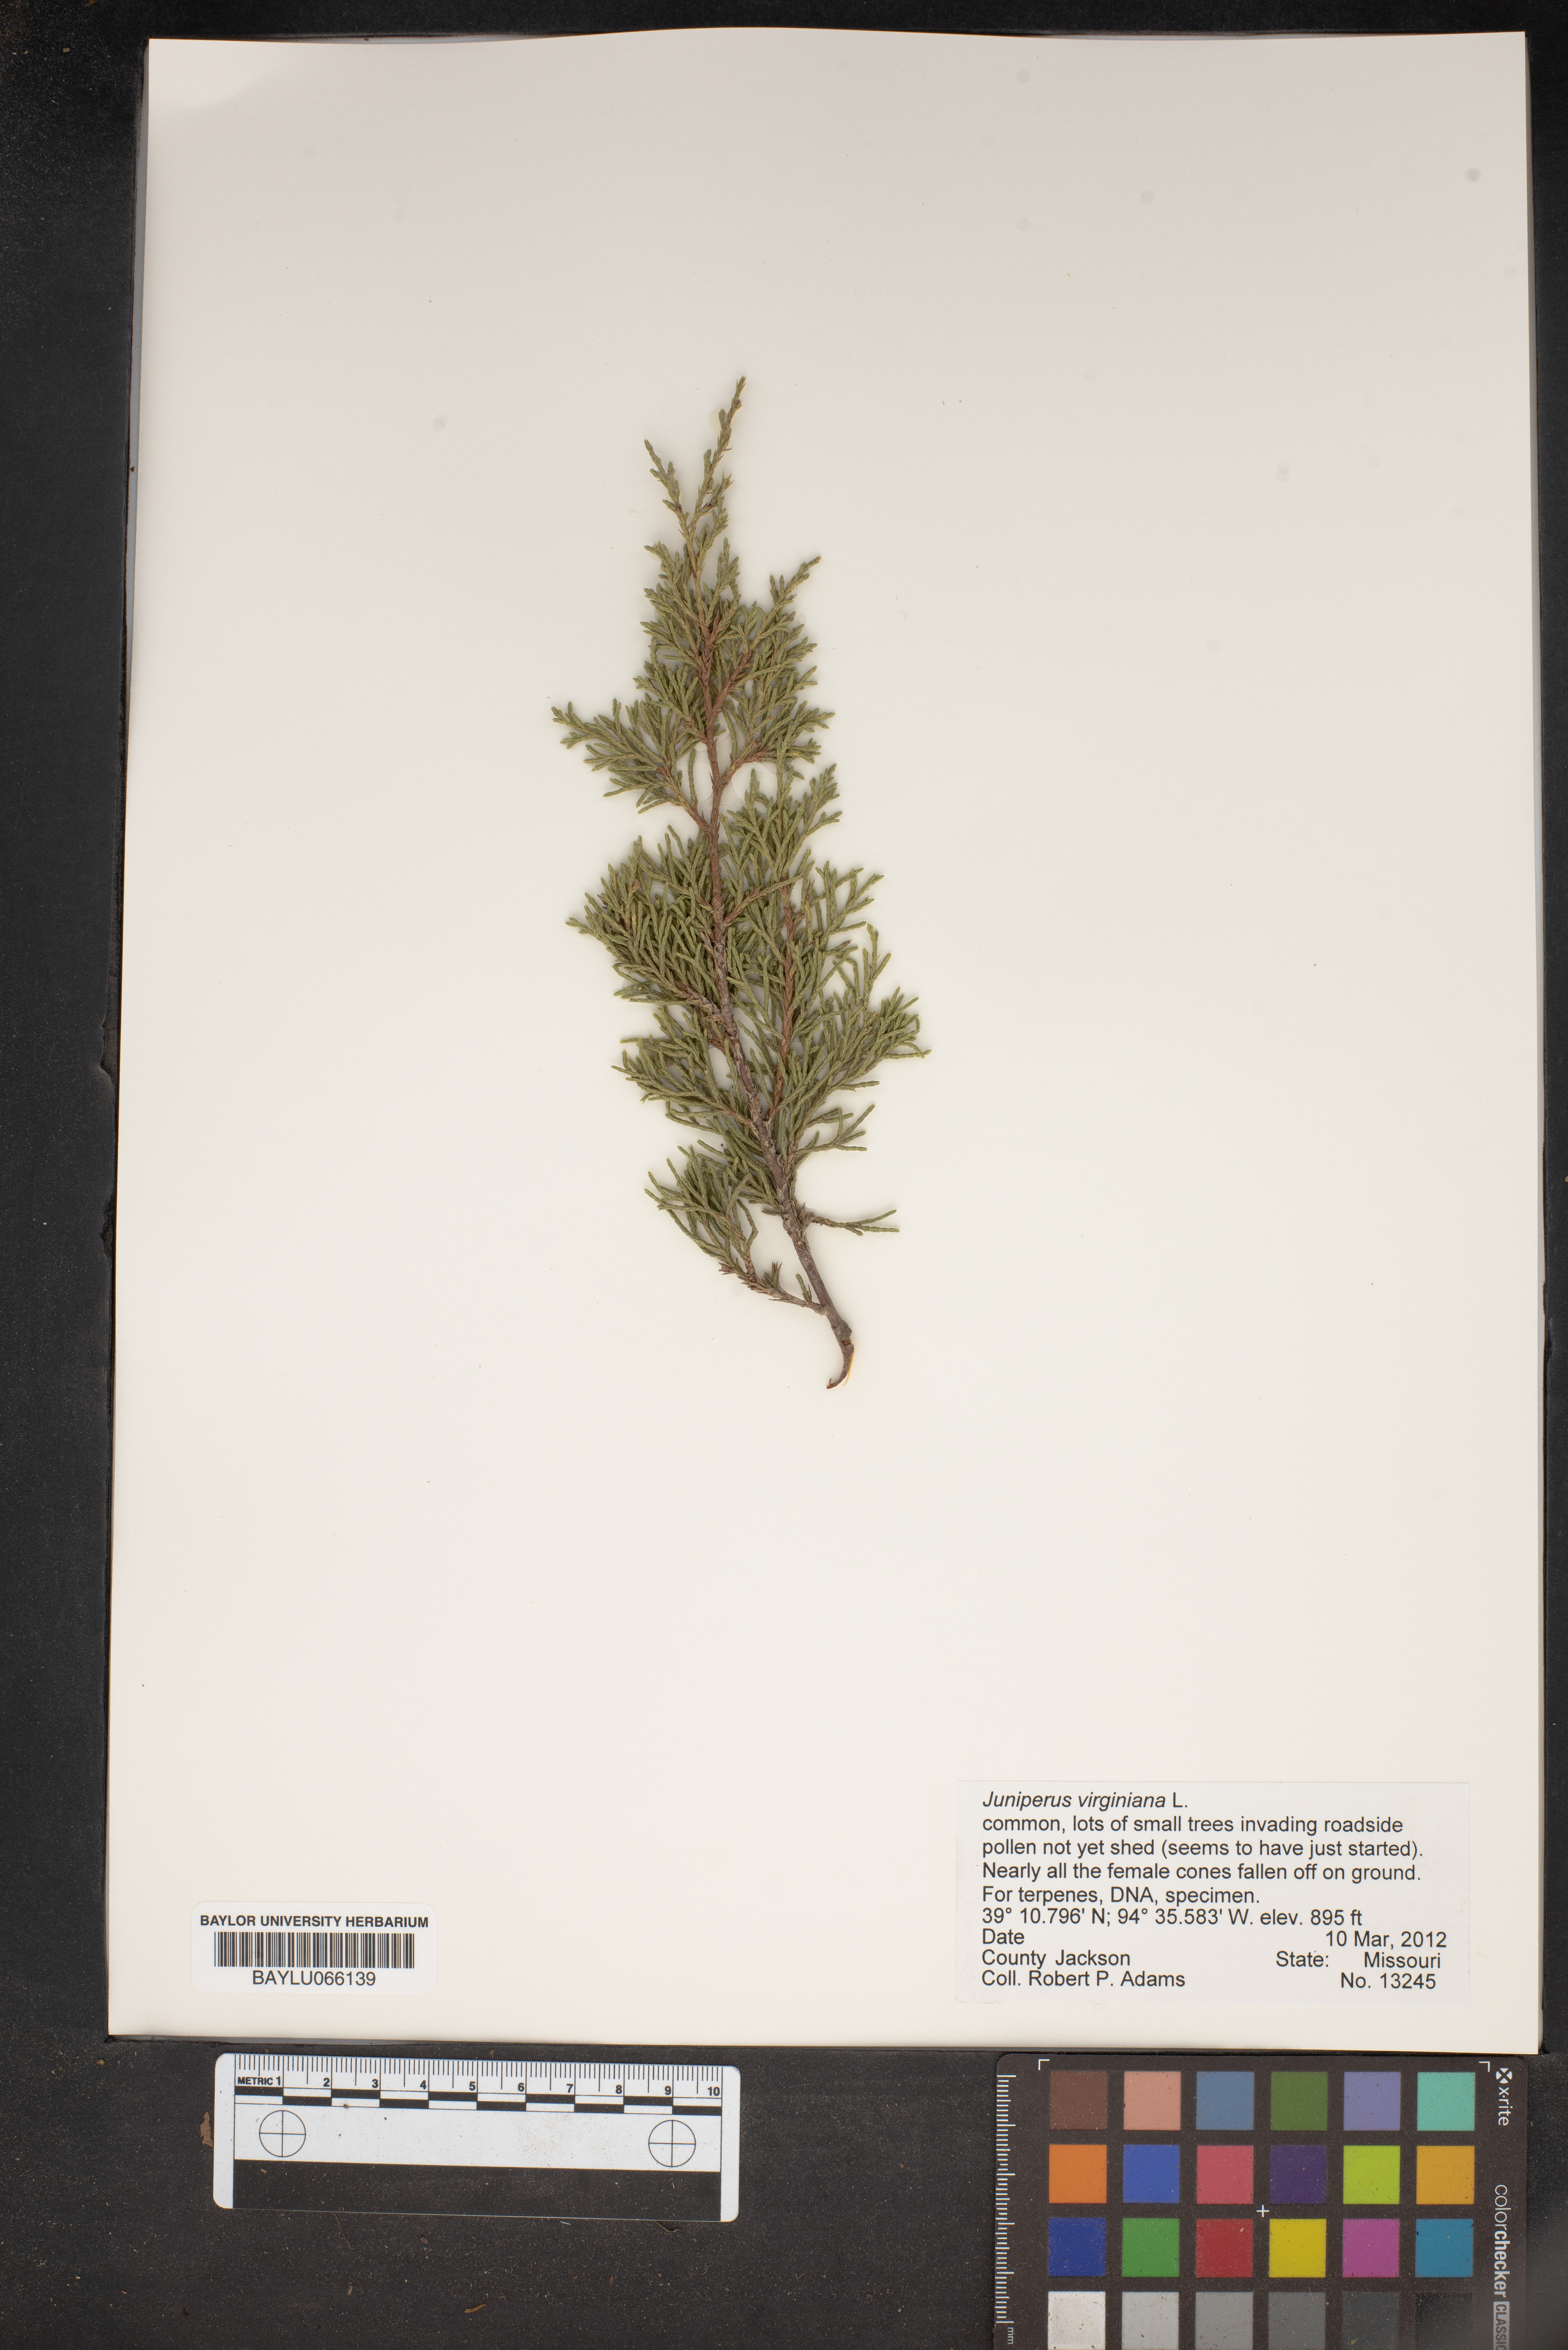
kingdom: Plantae
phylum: Tracheophyta
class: Pinopsida
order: Pinales
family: Cupressaceae
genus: Juniperus
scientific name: Juniperus virginiana
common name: Red juniper
